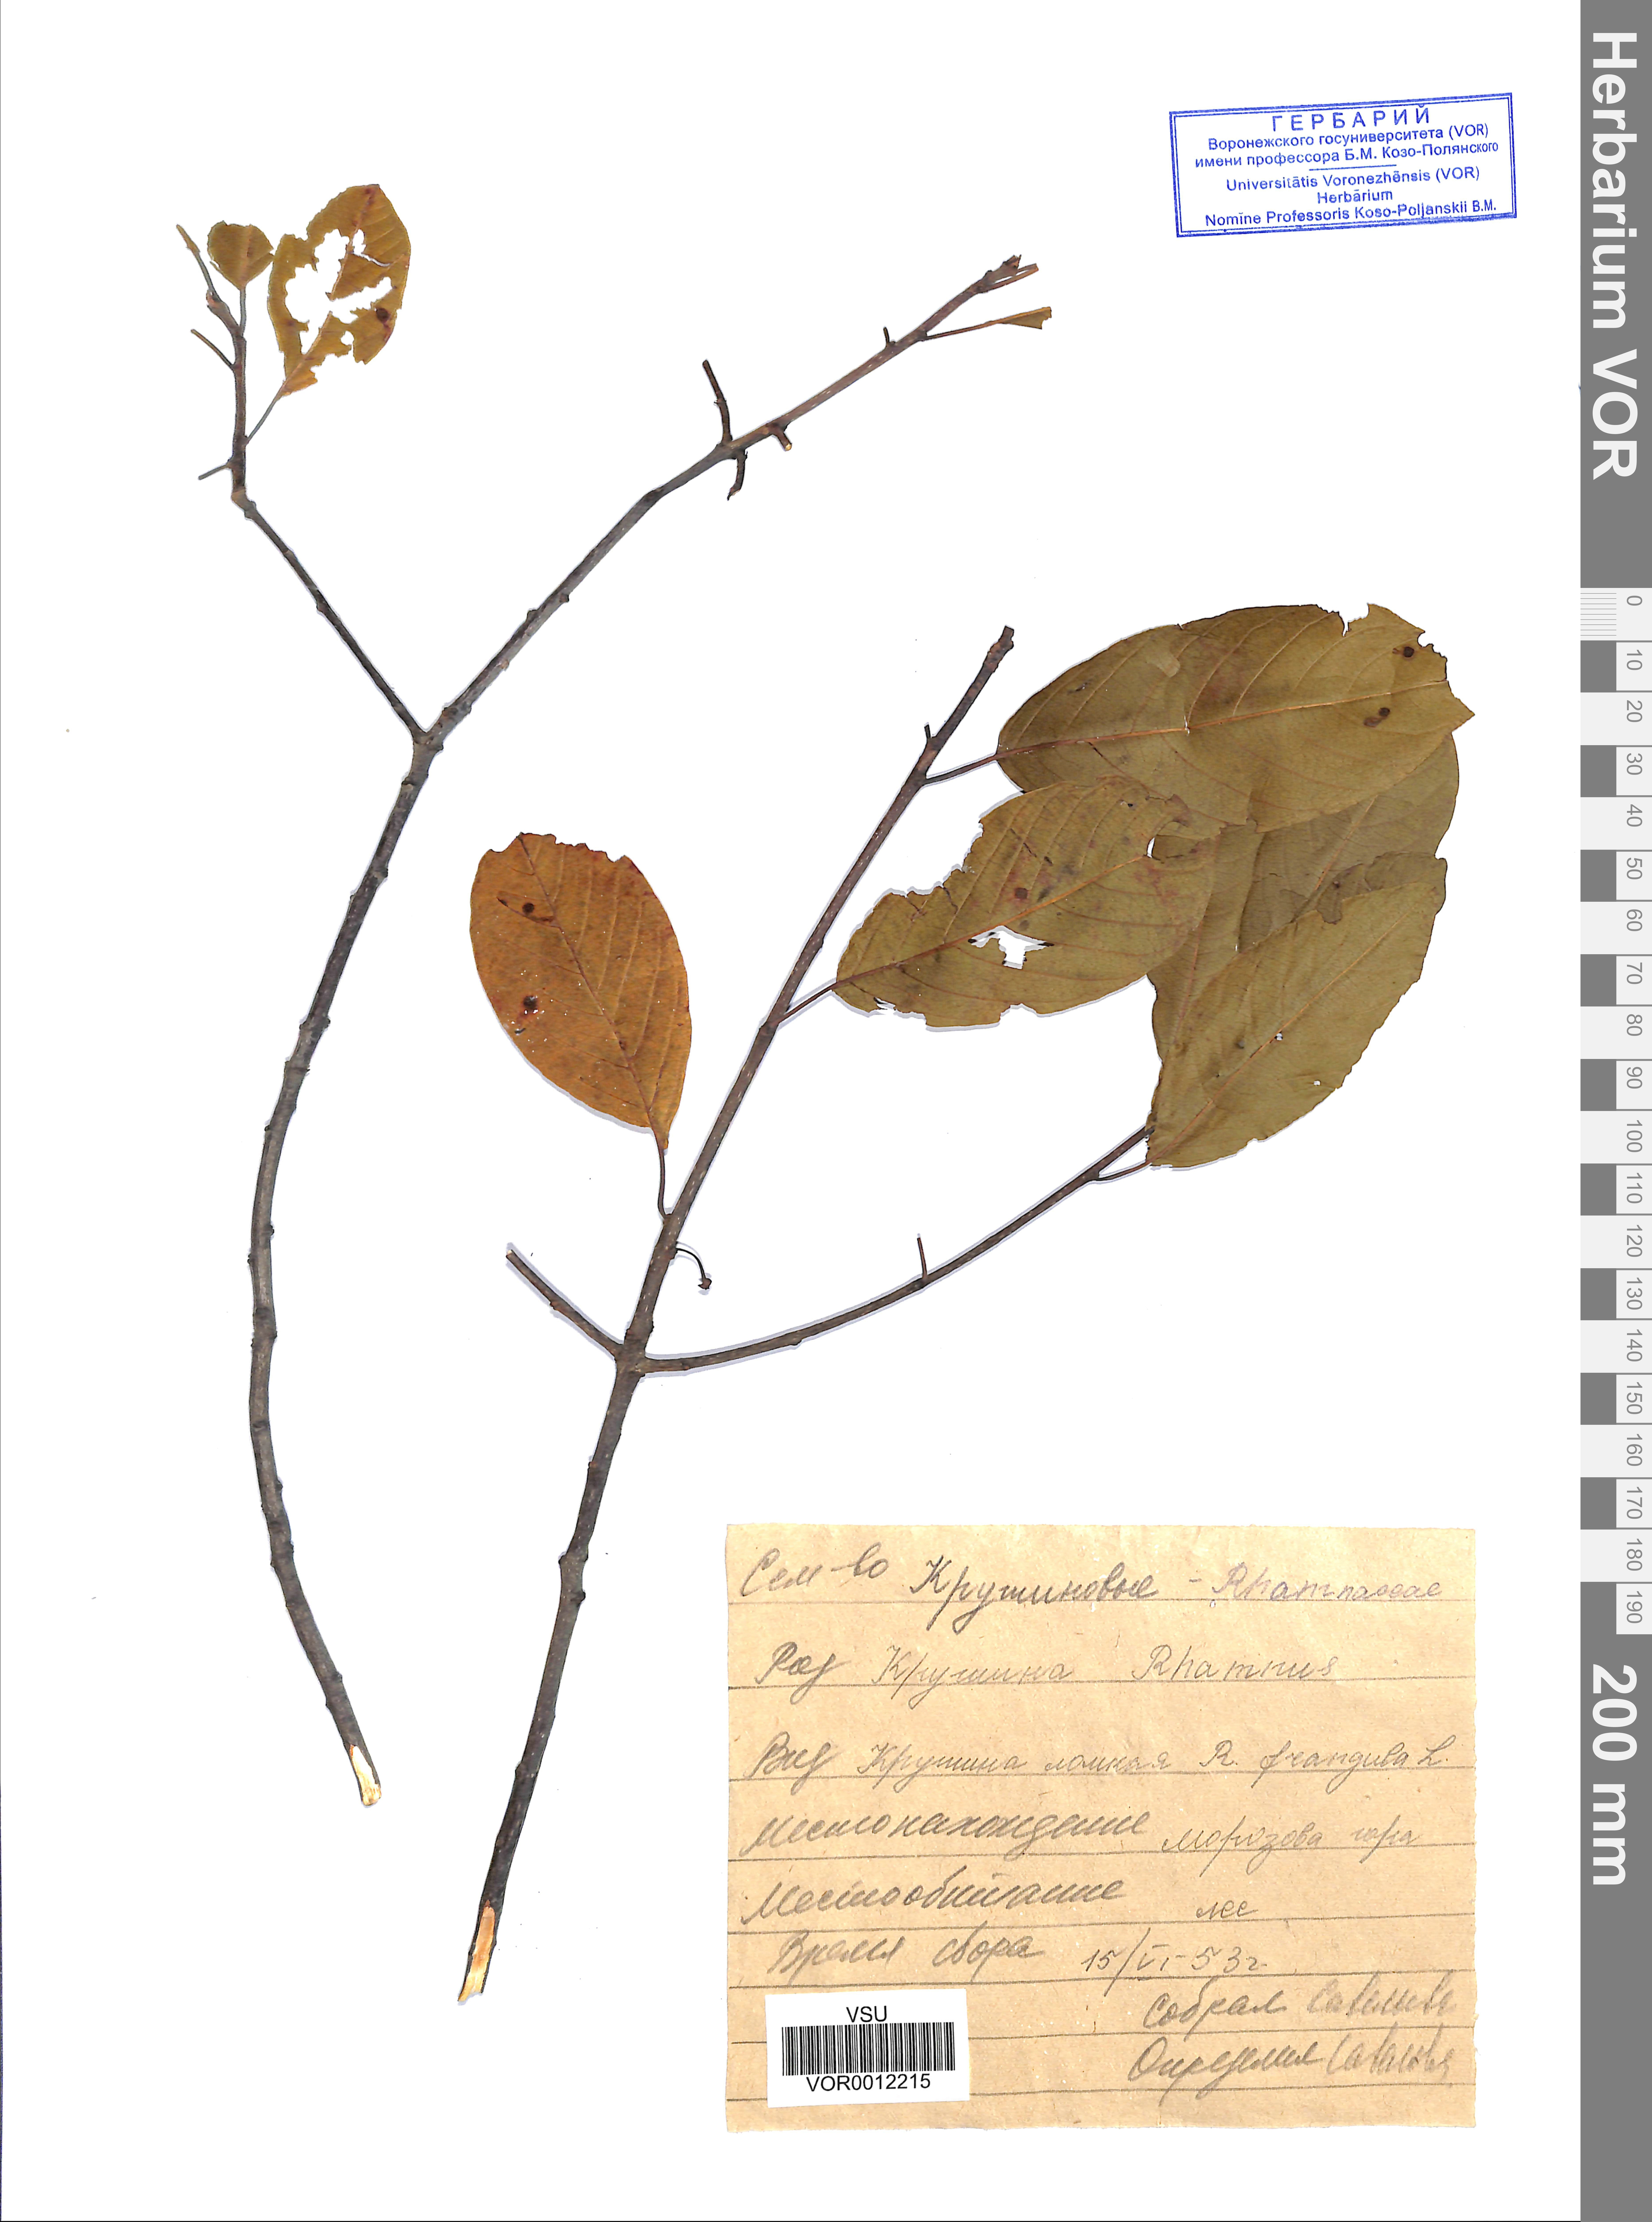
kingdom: Plantae
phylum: Tracheophyta
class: Magnoliopsida
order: Rosales
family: Rhamnaceae
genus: Frangula
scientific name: Frangula alnus
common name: Alder buckthorn
